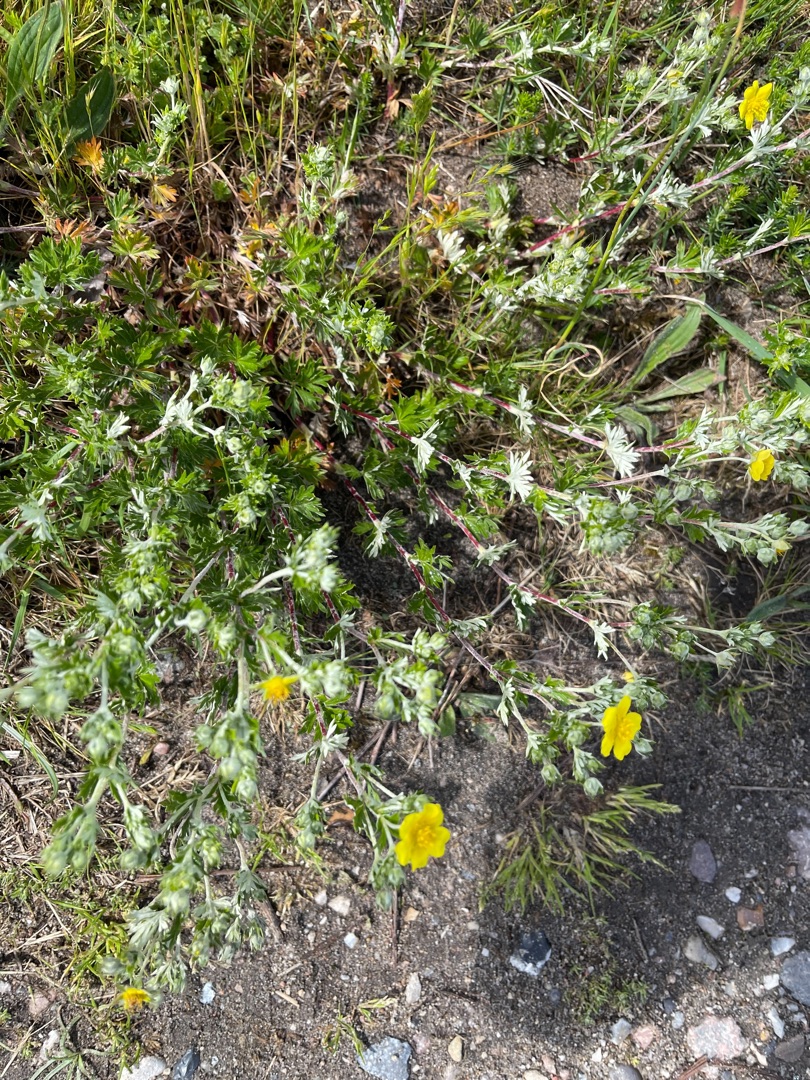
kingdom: Plantae
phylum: Tracheophyta
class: Magnoliopsida
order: Rosales
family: Rosaceae
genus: Potentilla
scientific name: Potentilla argentea
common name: Sølv-potentil
